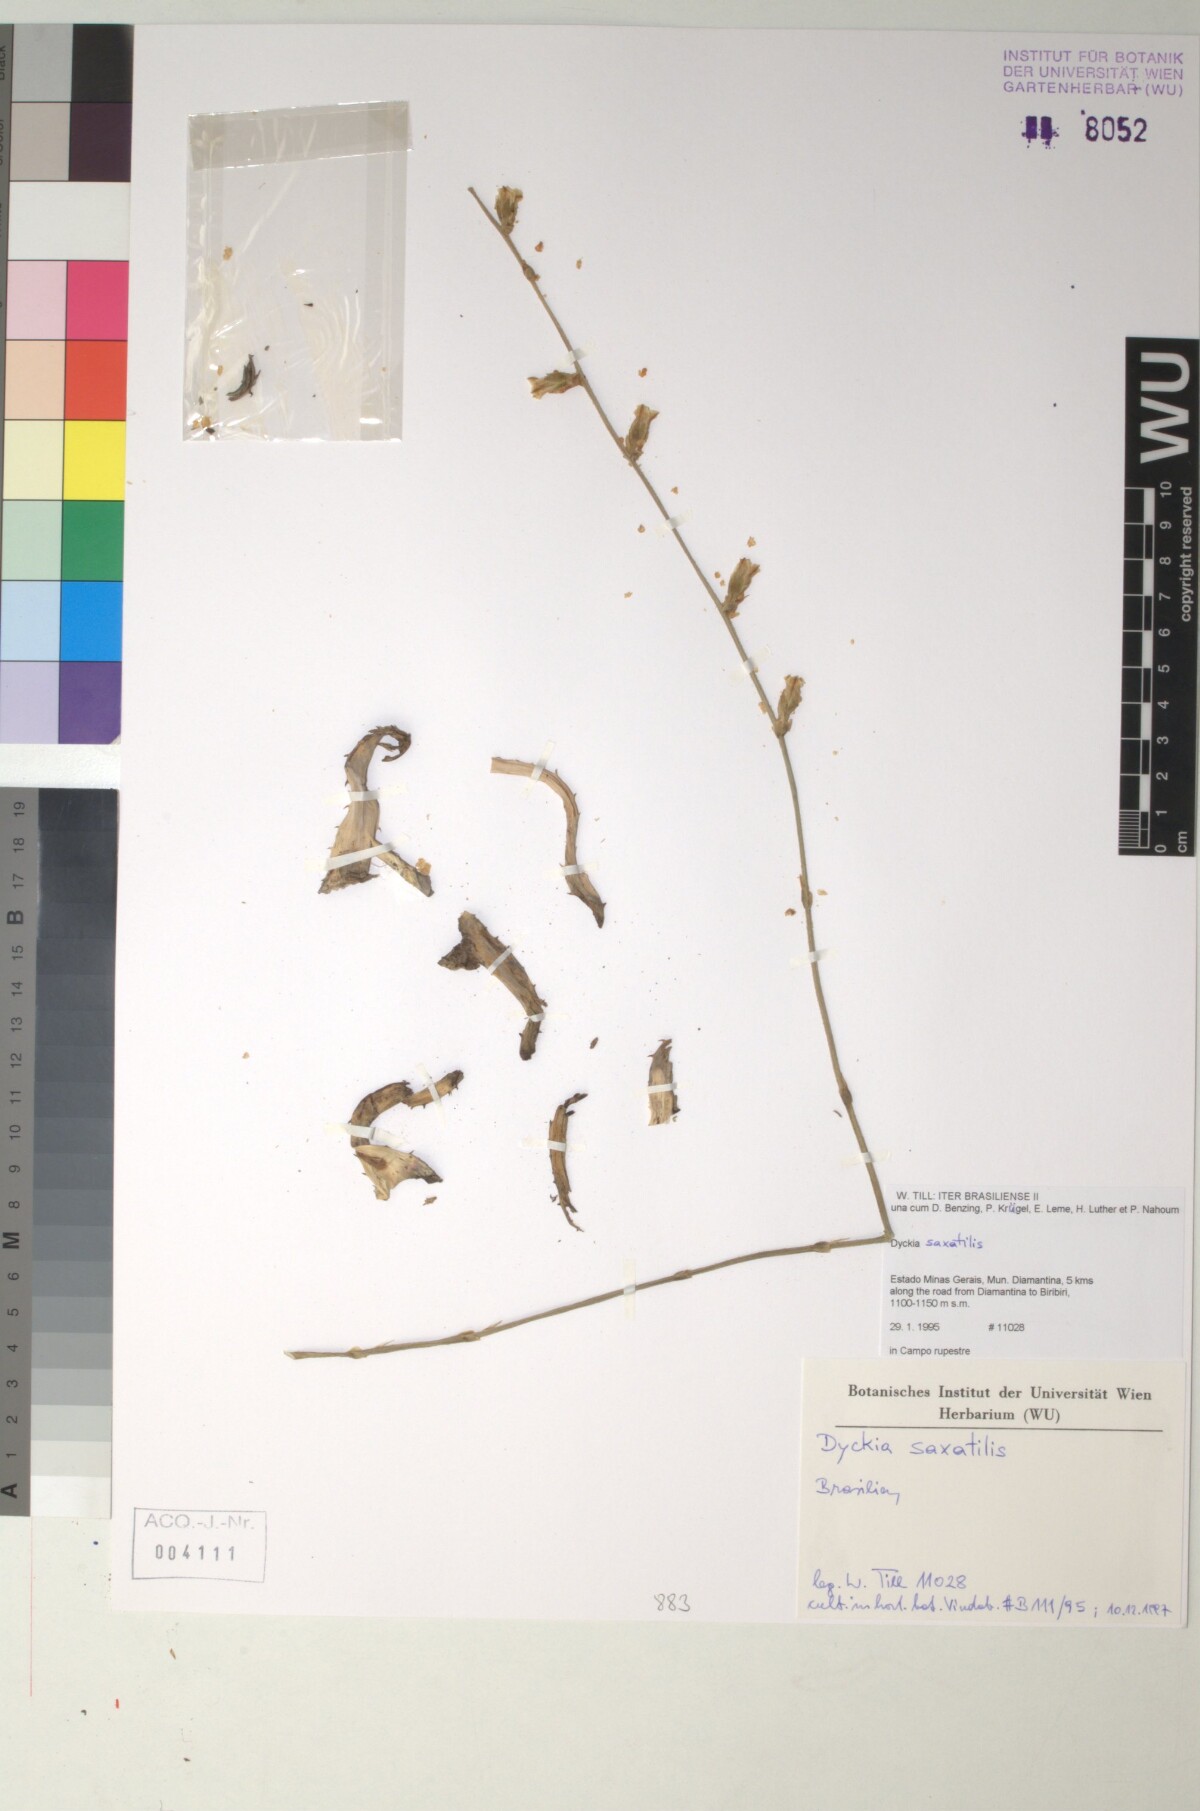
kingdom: Plantae
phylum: Tracheophyta
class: Liliopsida
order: Poales
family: Bromeliaceae
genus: Dyckia
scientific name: Dyckia saxatilis
